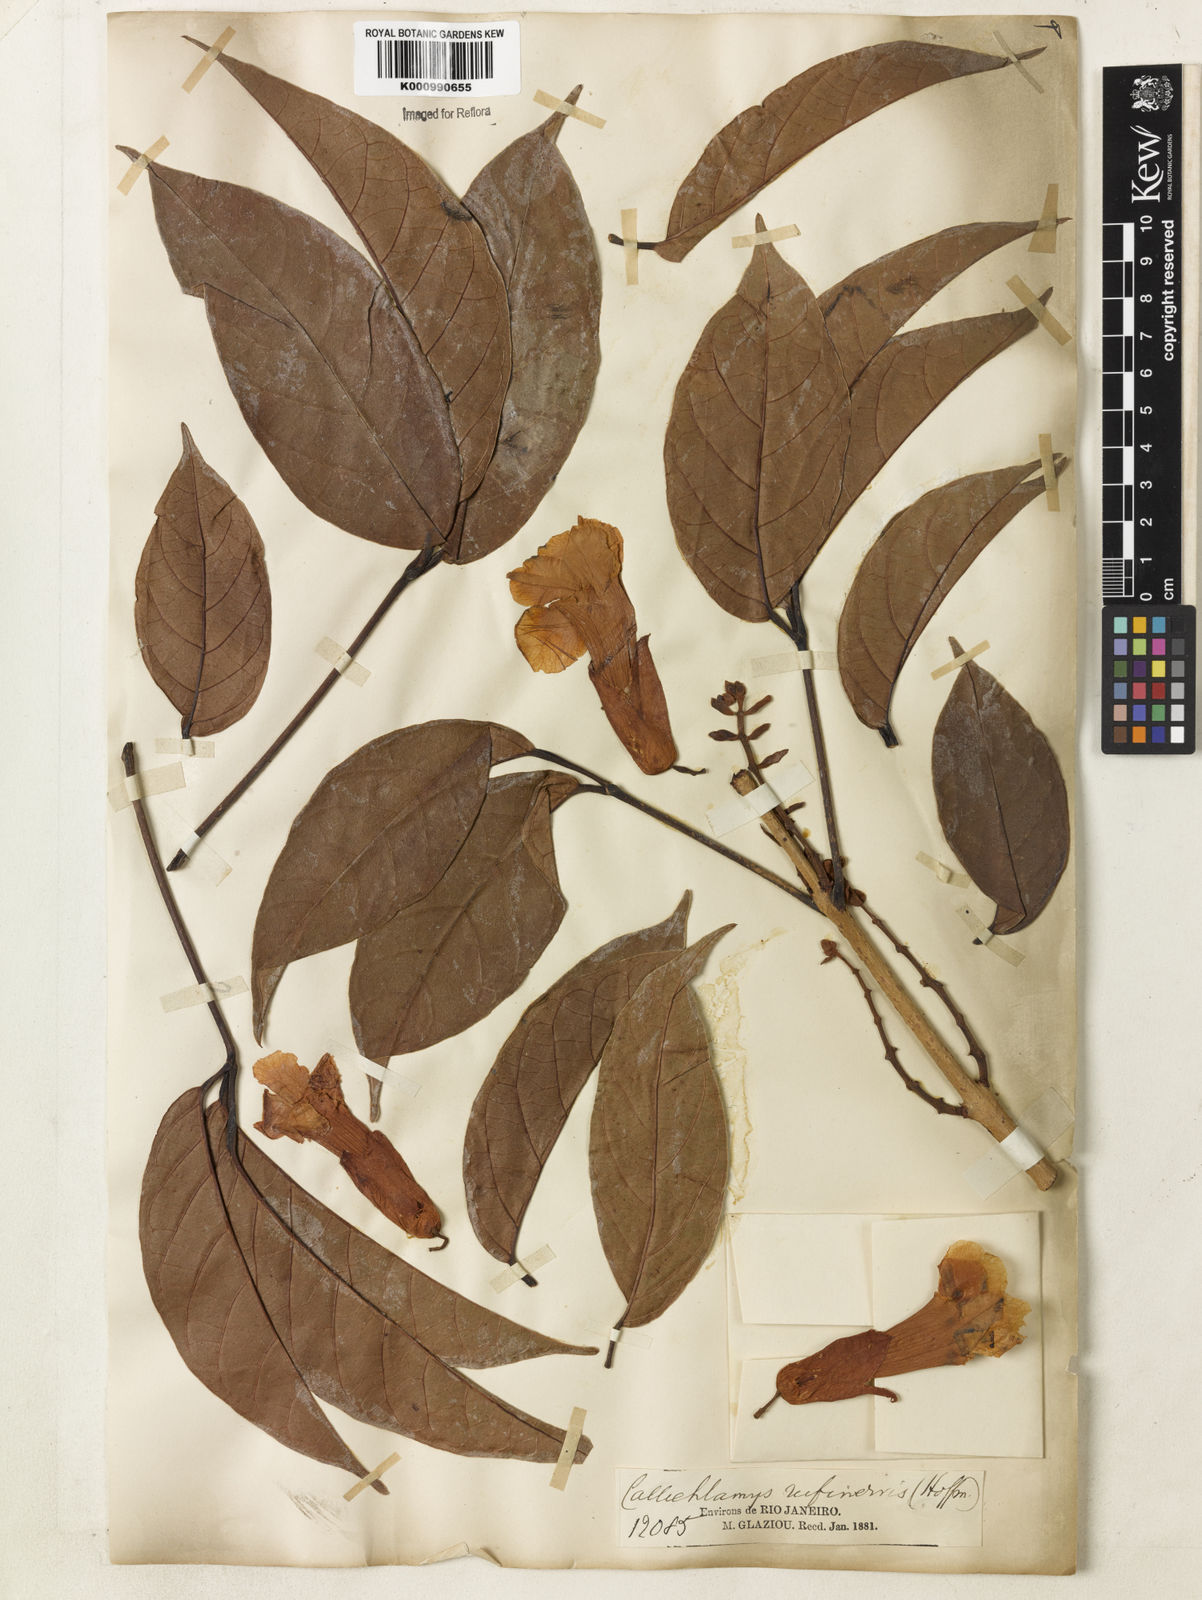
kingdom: Plantae
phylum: Tracheophyta
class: Magnoliopsida
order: Lamiales
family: Bignoniaceae
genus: Callichlamys
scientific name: Callichlamys latifolia
